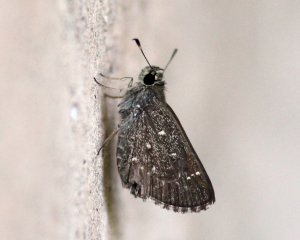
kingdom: Animalia
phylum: Arthropoda
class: Insecta
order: Lepidoptera
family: Hesperiidae
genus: Mastor
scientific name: Mastor celia
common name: Celia's Roadside-Skipper
